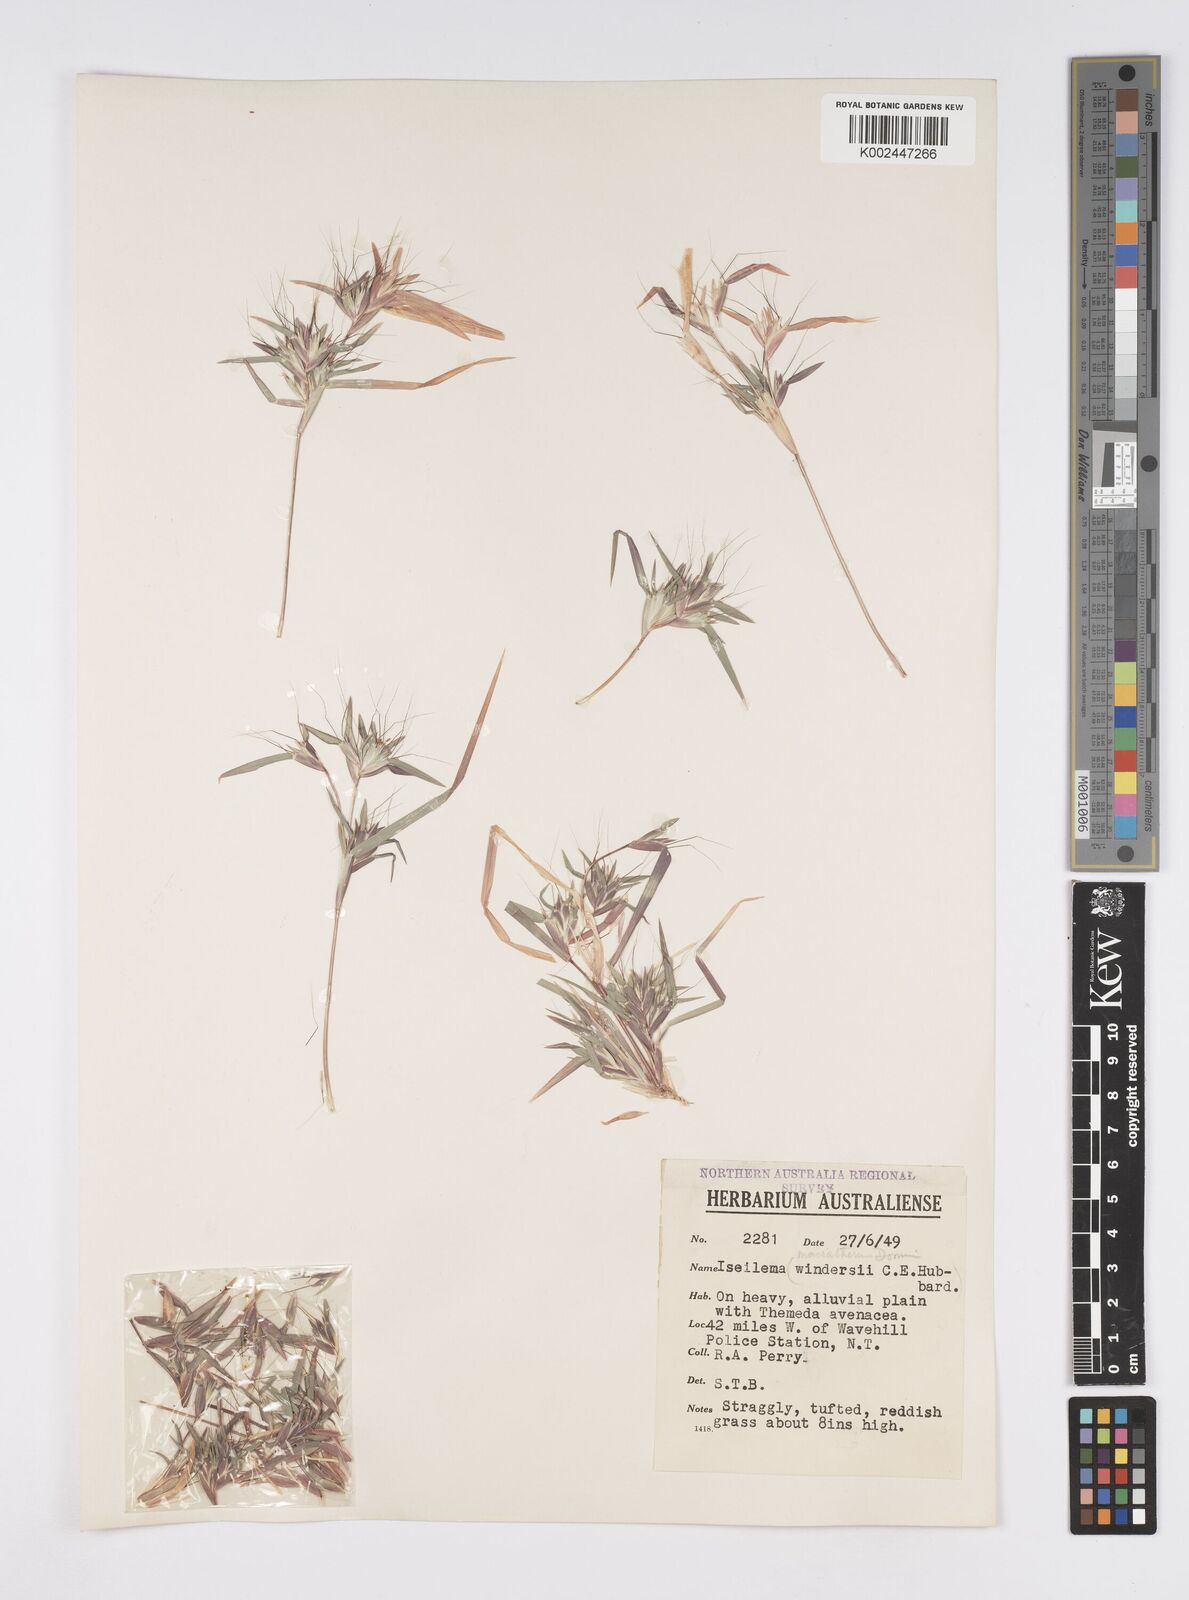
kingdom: Plantae
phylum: Tracheophyta
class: Liliopsida
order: Poales
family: Poaceae
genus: Iseilema
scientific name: Iseilema macratherum
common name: Bull flinders grass
